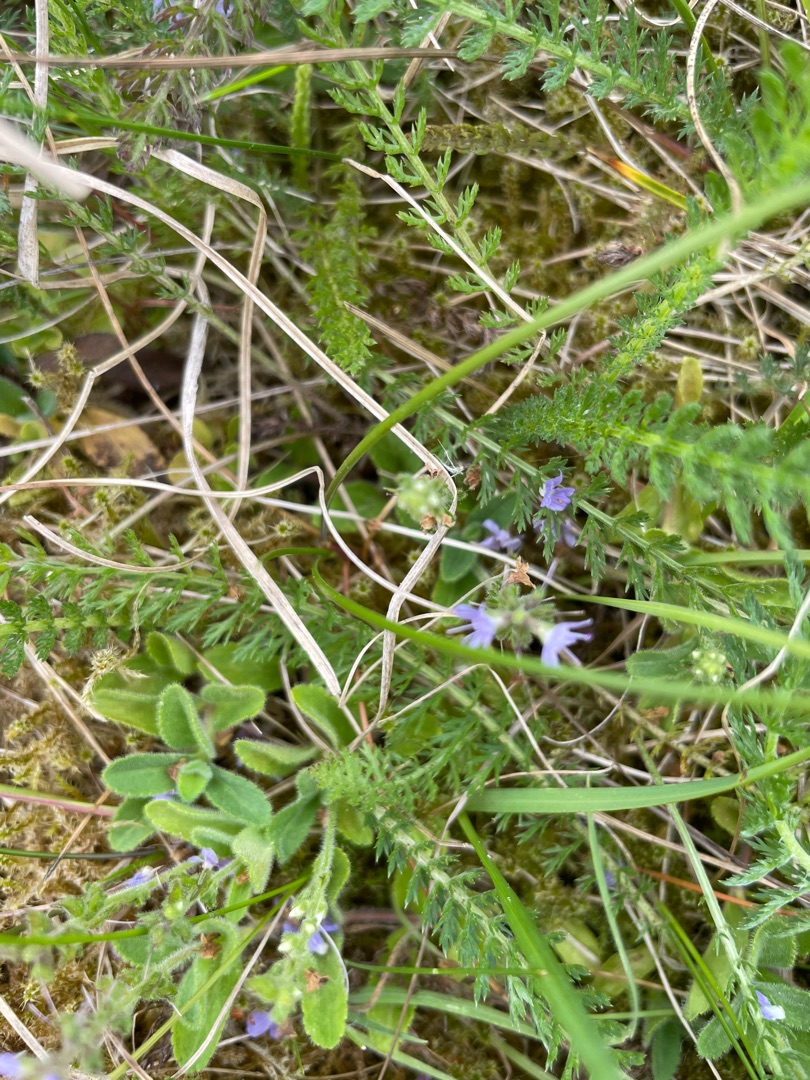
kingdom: Plantae
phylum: Tracheophyta
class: Magnoliopsida
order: Lamiales
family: Plantaginaceae
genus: Veronica
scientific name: Veronica officinalis
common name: Læge-ærenpris
